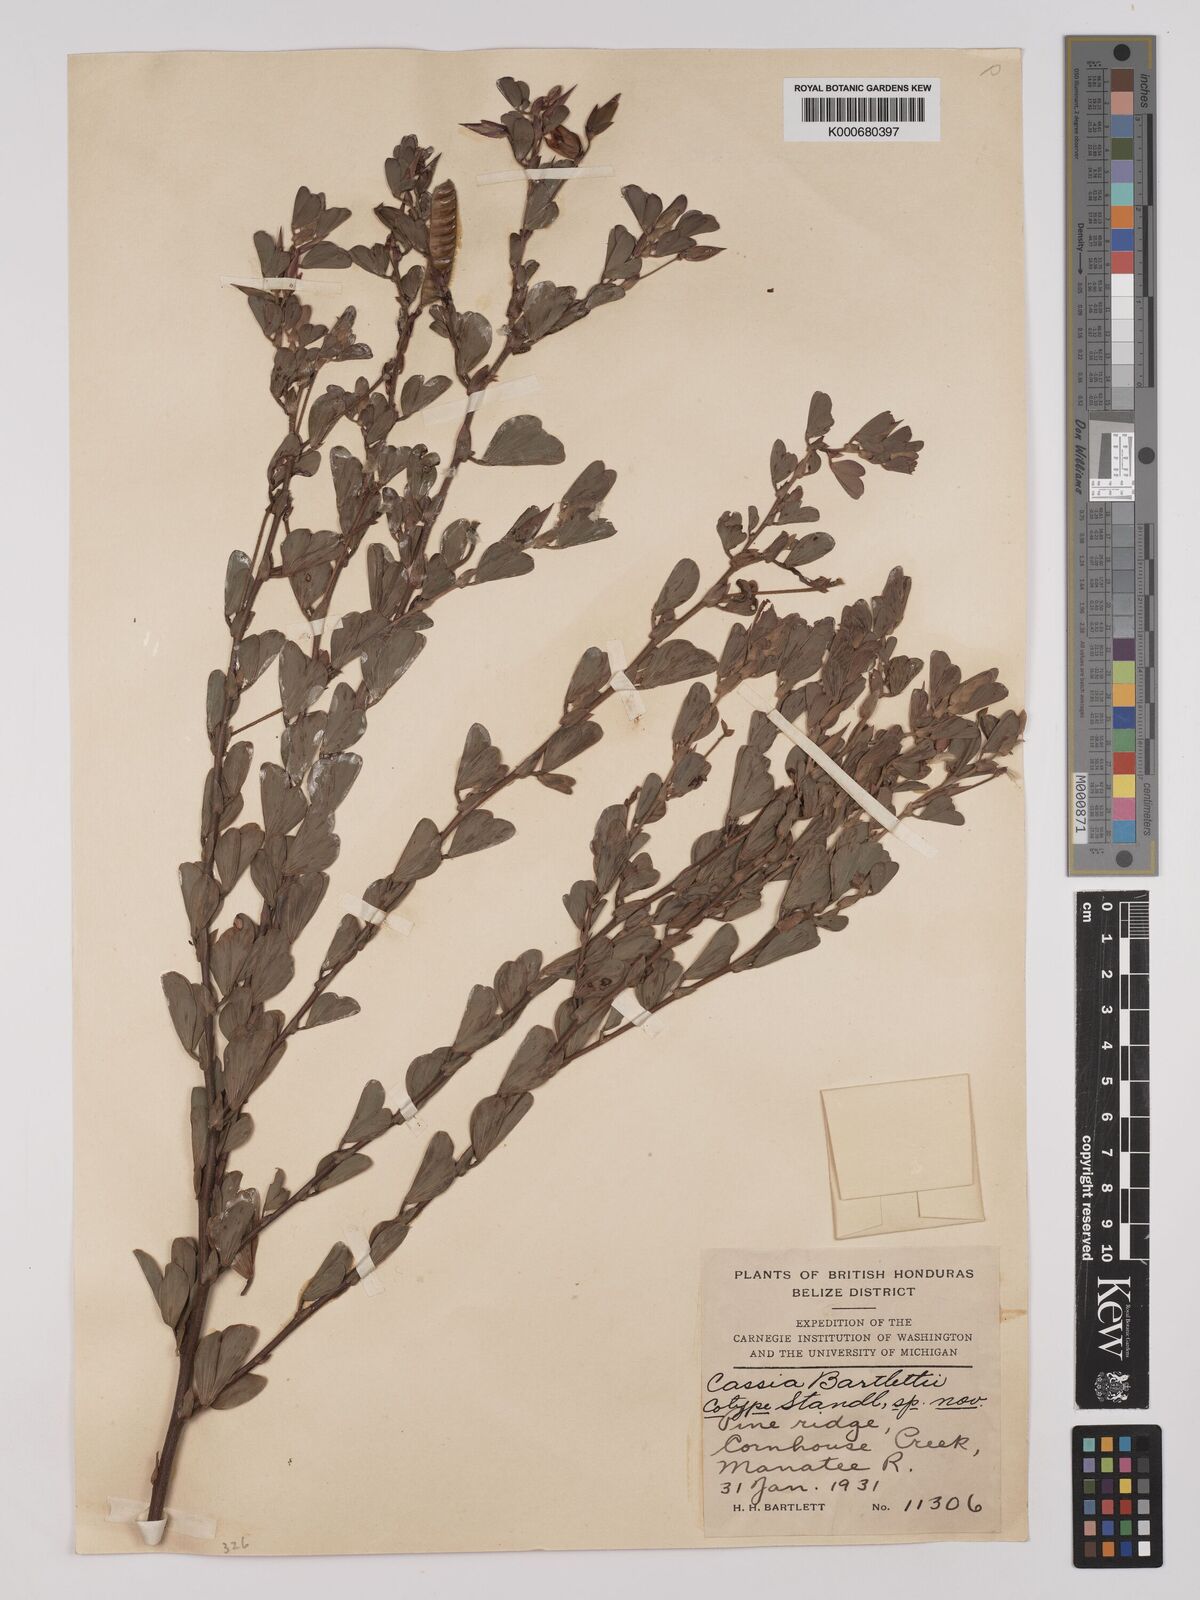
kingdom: Plantae
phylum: Tracheophyta
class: Magnoliopsida
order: Fabales
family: Fabaceae
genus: Chamaecrista
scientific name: Chamaecrista desvauxii
